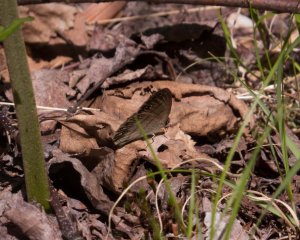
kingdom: Animalia
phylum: Arthropoda
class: Insecta
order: Lepidoptera
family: Nymphalidae
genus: Euptychia
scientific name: Euptychia cymela
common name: Little Wood Satyr
